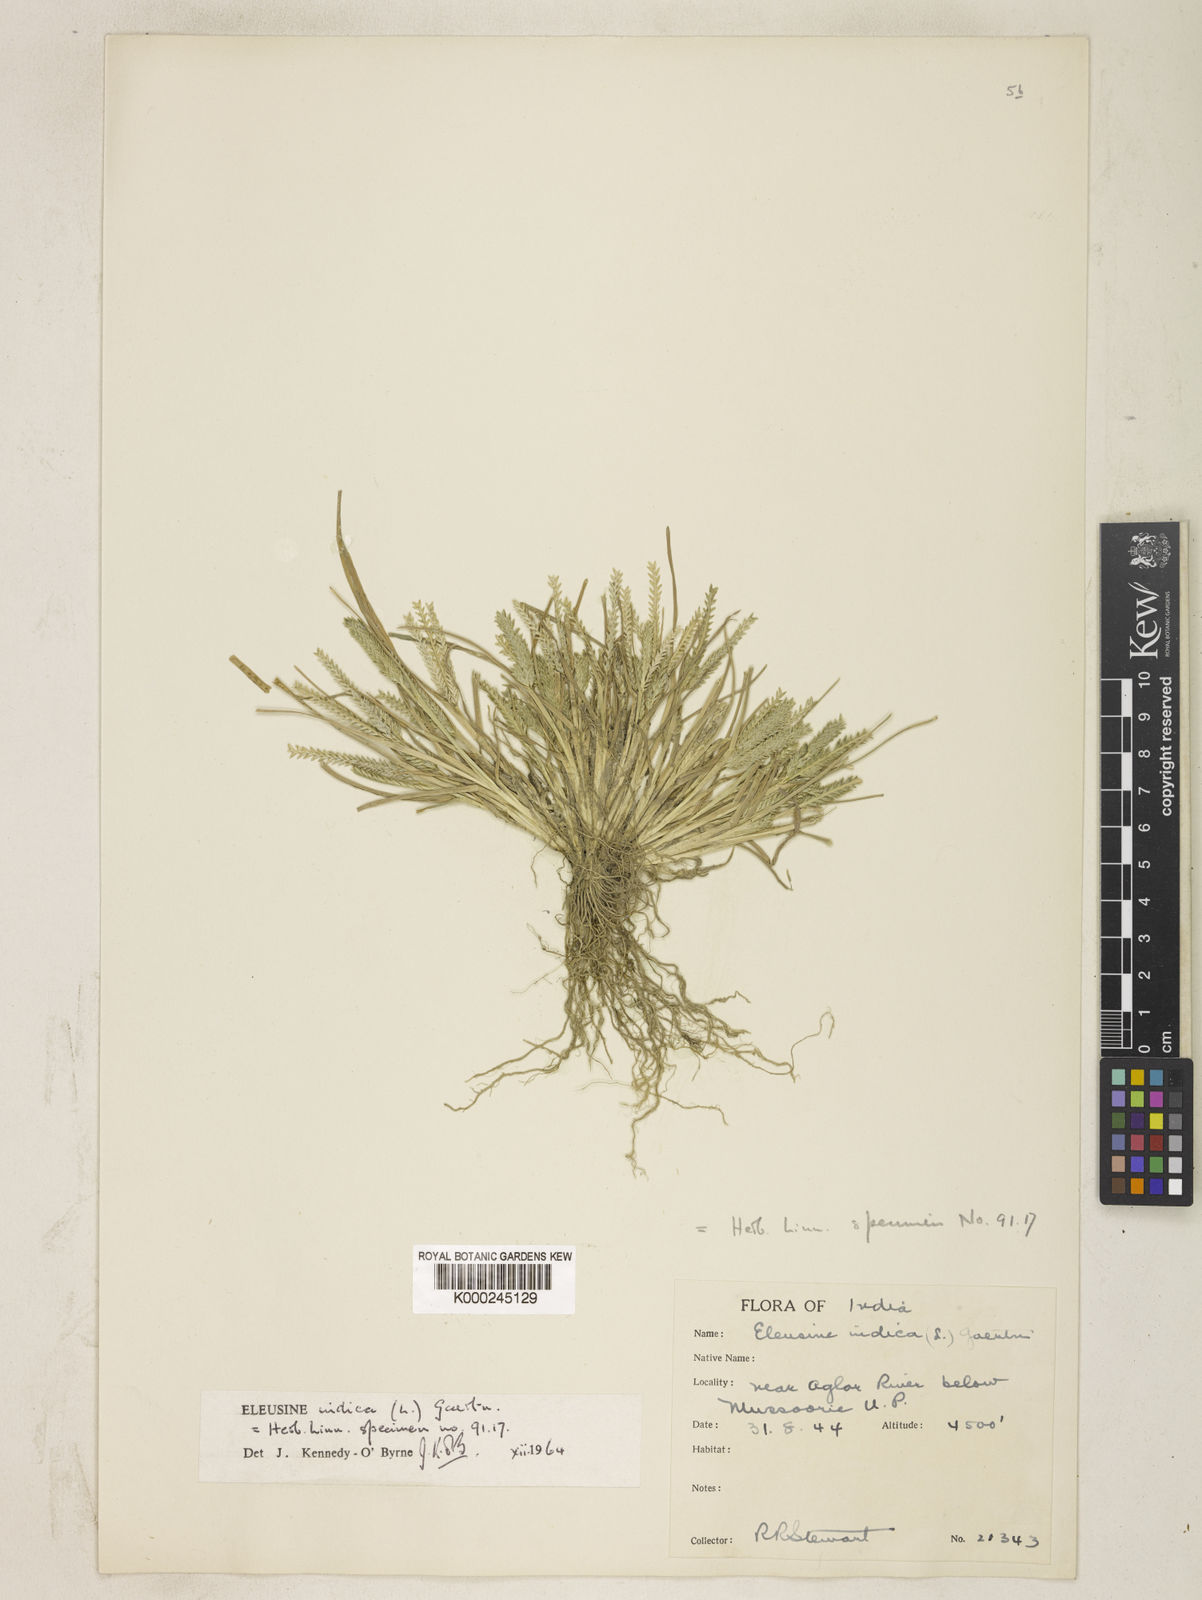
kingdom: Plantae
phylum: Tracheophyta
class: Liliopsida
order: Poales
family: Poaceae
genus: Eleusine
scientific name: Eleusine indica
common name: Yard-grass
